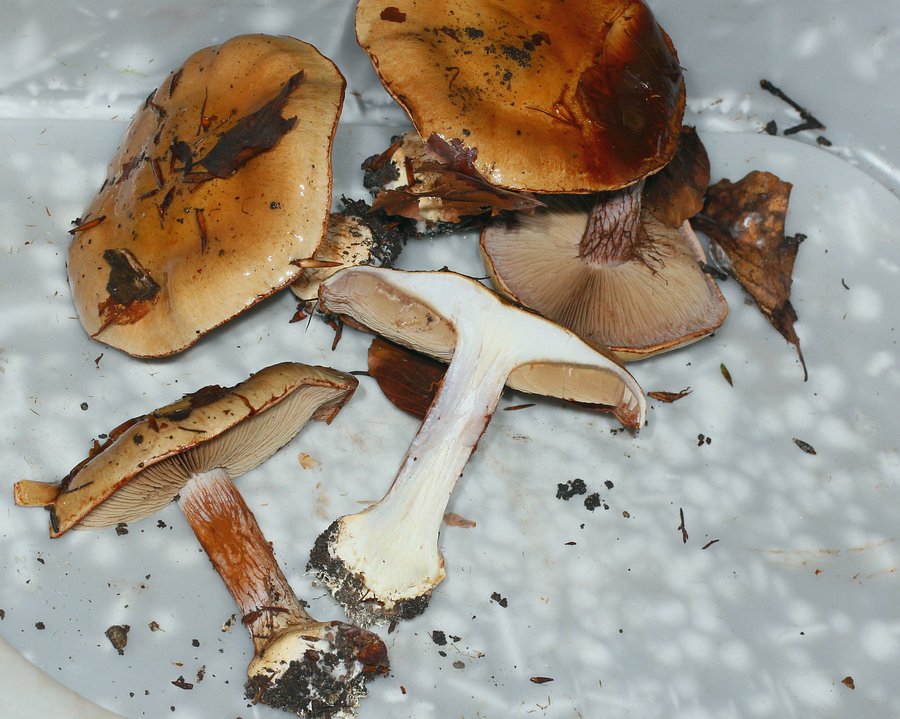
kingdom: Fungi
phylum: Basidiomycota
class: Agaricomycetes
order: Agaricales
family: Cortinariaceae
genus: Cortinarius
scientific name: Cortinarius anserinus
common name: bøge-slørhat
